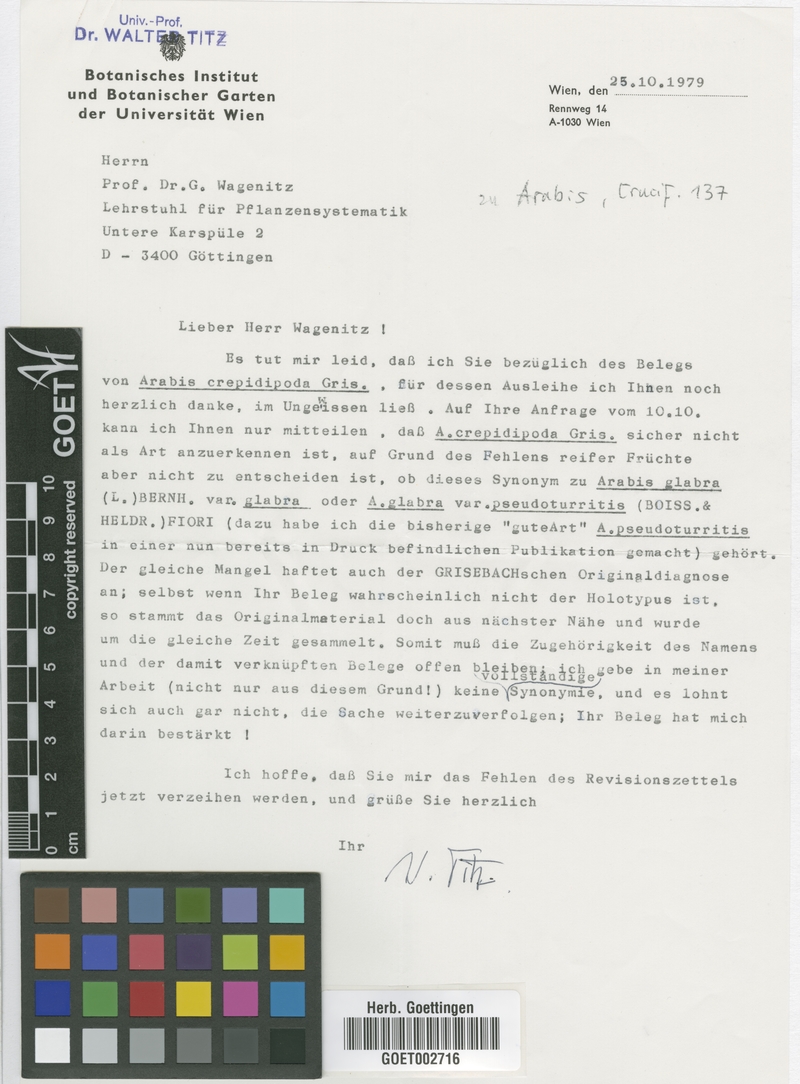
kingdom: Plantae
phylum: Tracheophyta
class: Magnoliopsida
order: Brassicales
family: Brassicaceae
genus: Turritis
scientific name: Turritis glabra
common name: Tower rockcress
